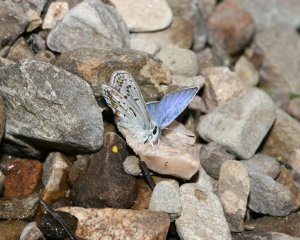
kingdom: Animalia
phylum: Arthropoda
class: Insecta
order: Lepidoptera
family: Lycaenidae
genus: Lycaeides
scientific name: Lycaeides melissa
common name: Melissa Blue
